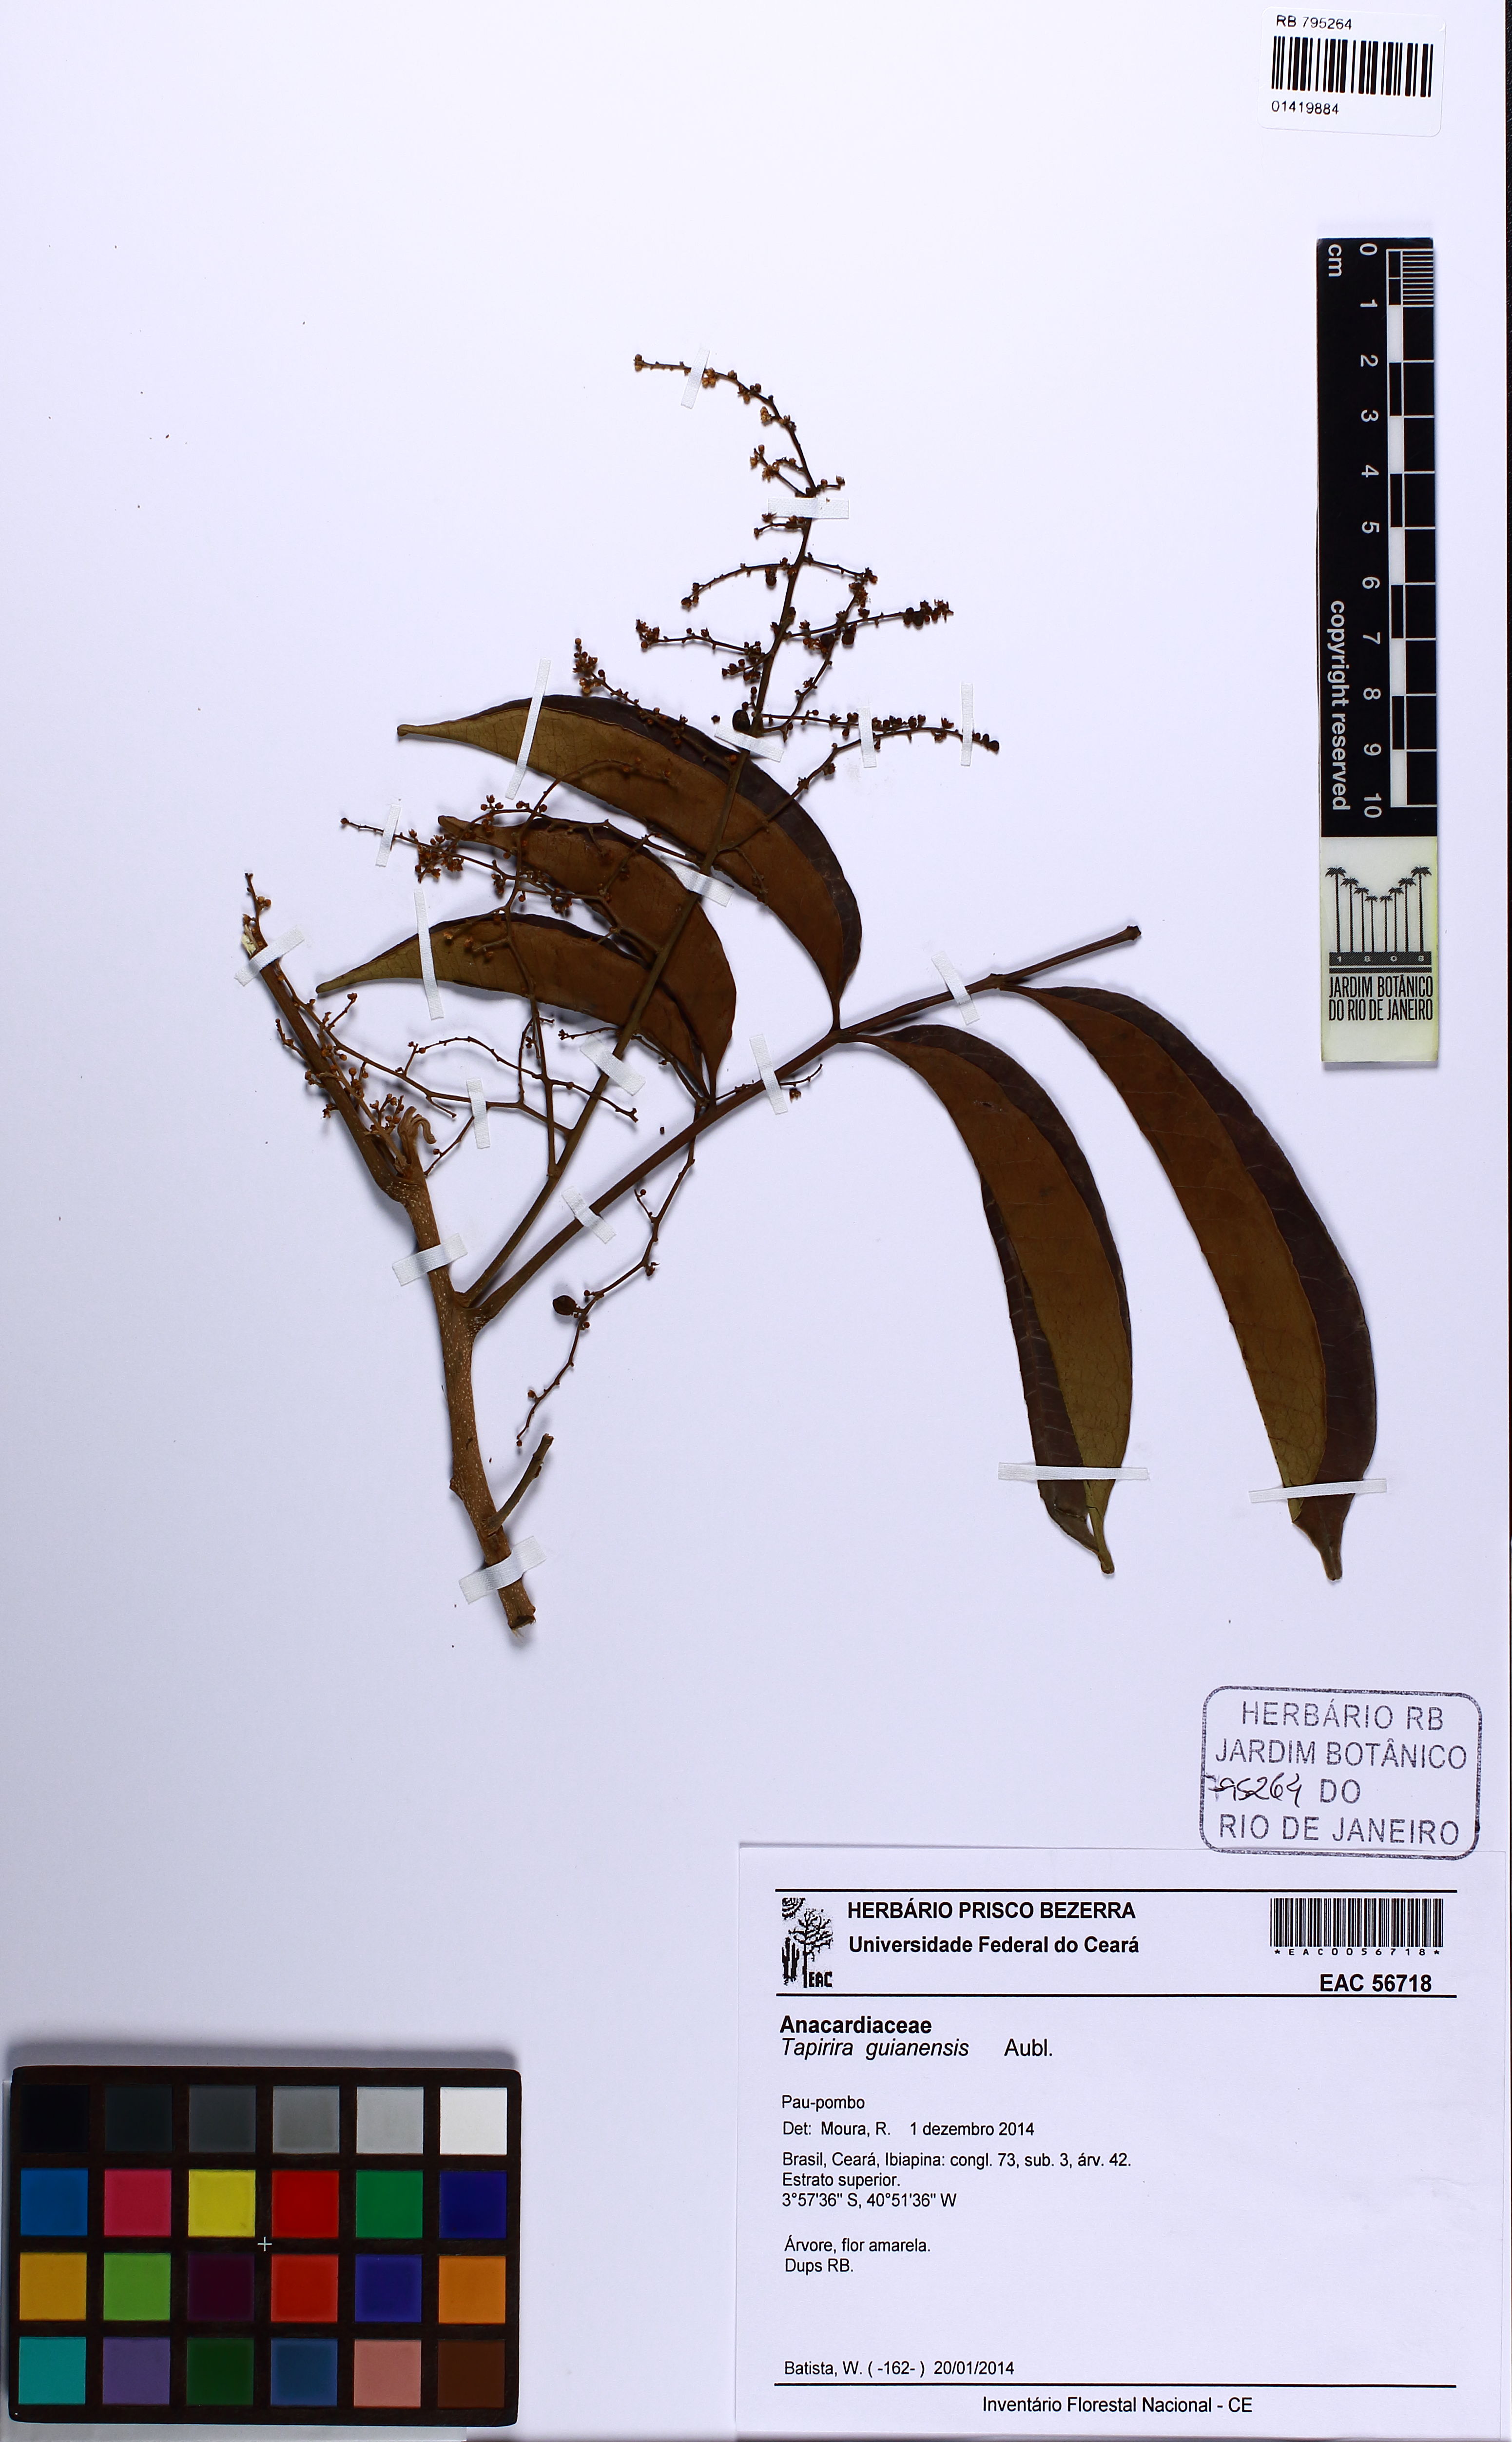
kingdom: Plantae
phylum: Tracheophyta
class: Magnoliopsida
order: Sapindales
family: Anacardiaceae
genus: Tapirira
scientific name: Tapirira guianensis
